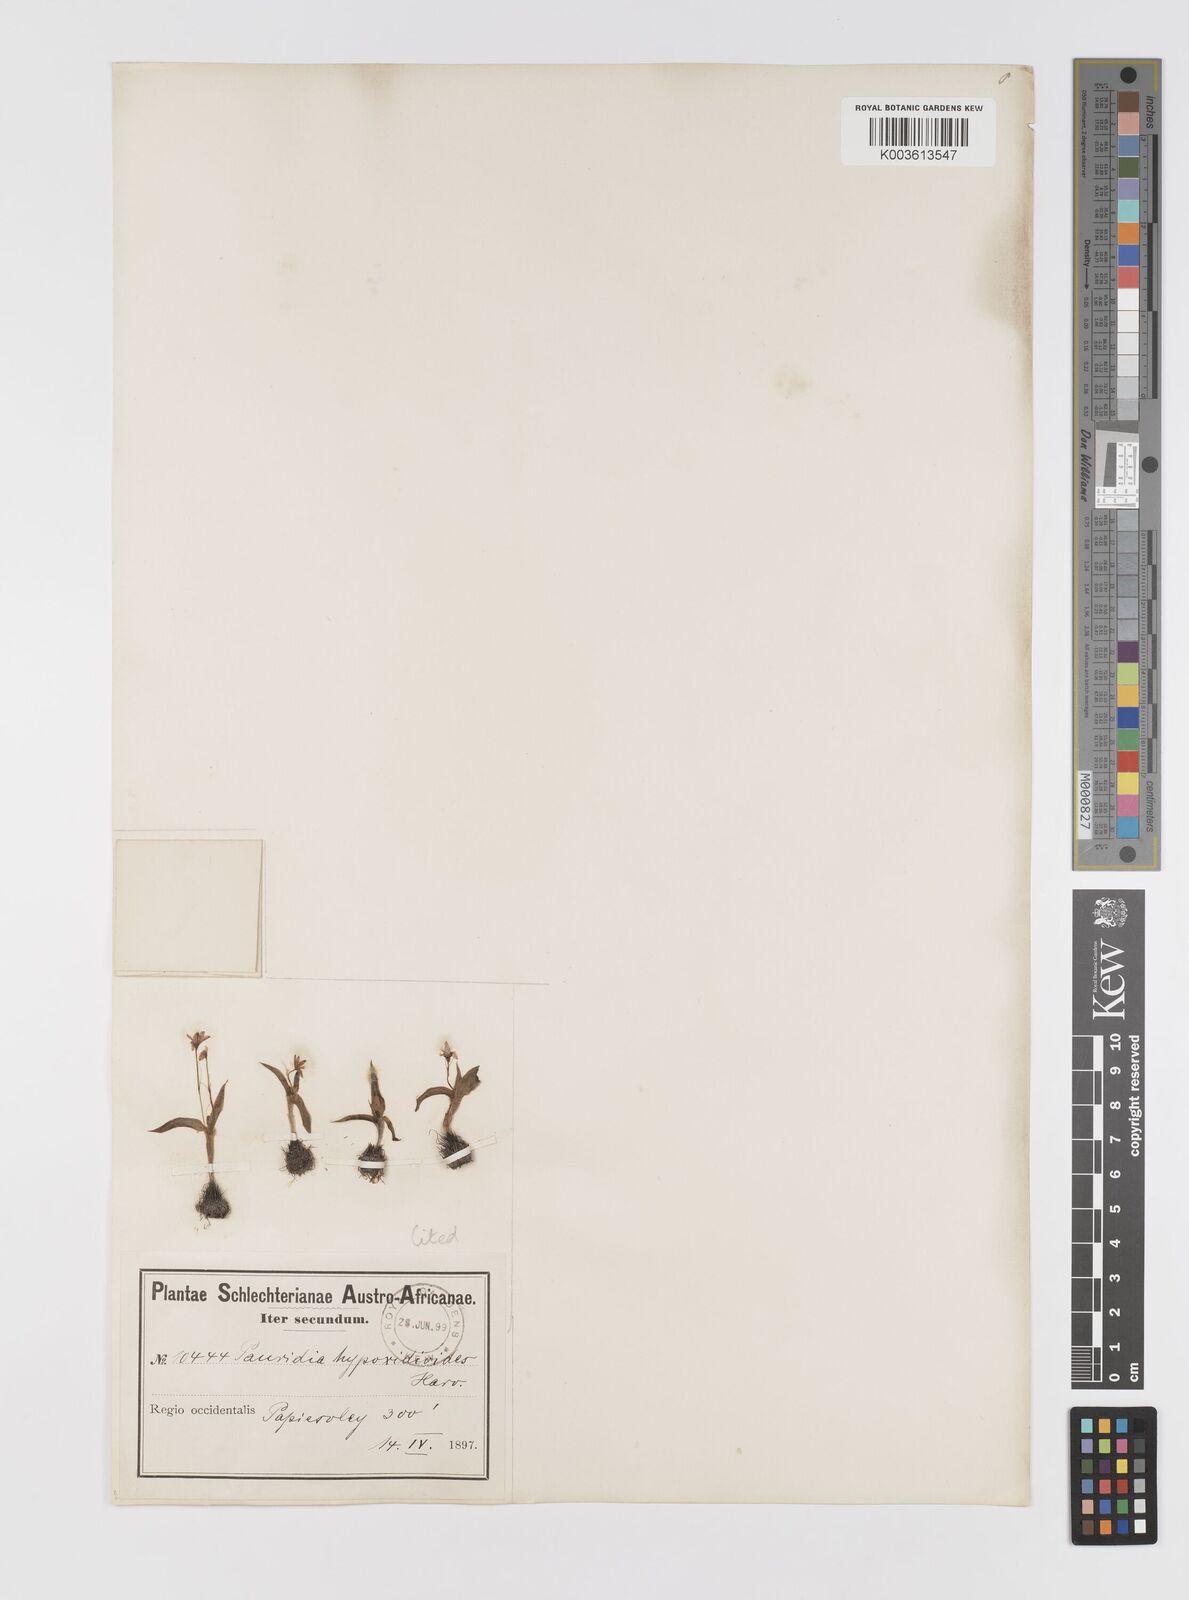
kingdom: Plantae
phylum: Tracheophyta
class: Liliopsida
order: Asparagales
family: Hypoxidaceae
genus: Pauridia
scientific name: Pauridia minuta
